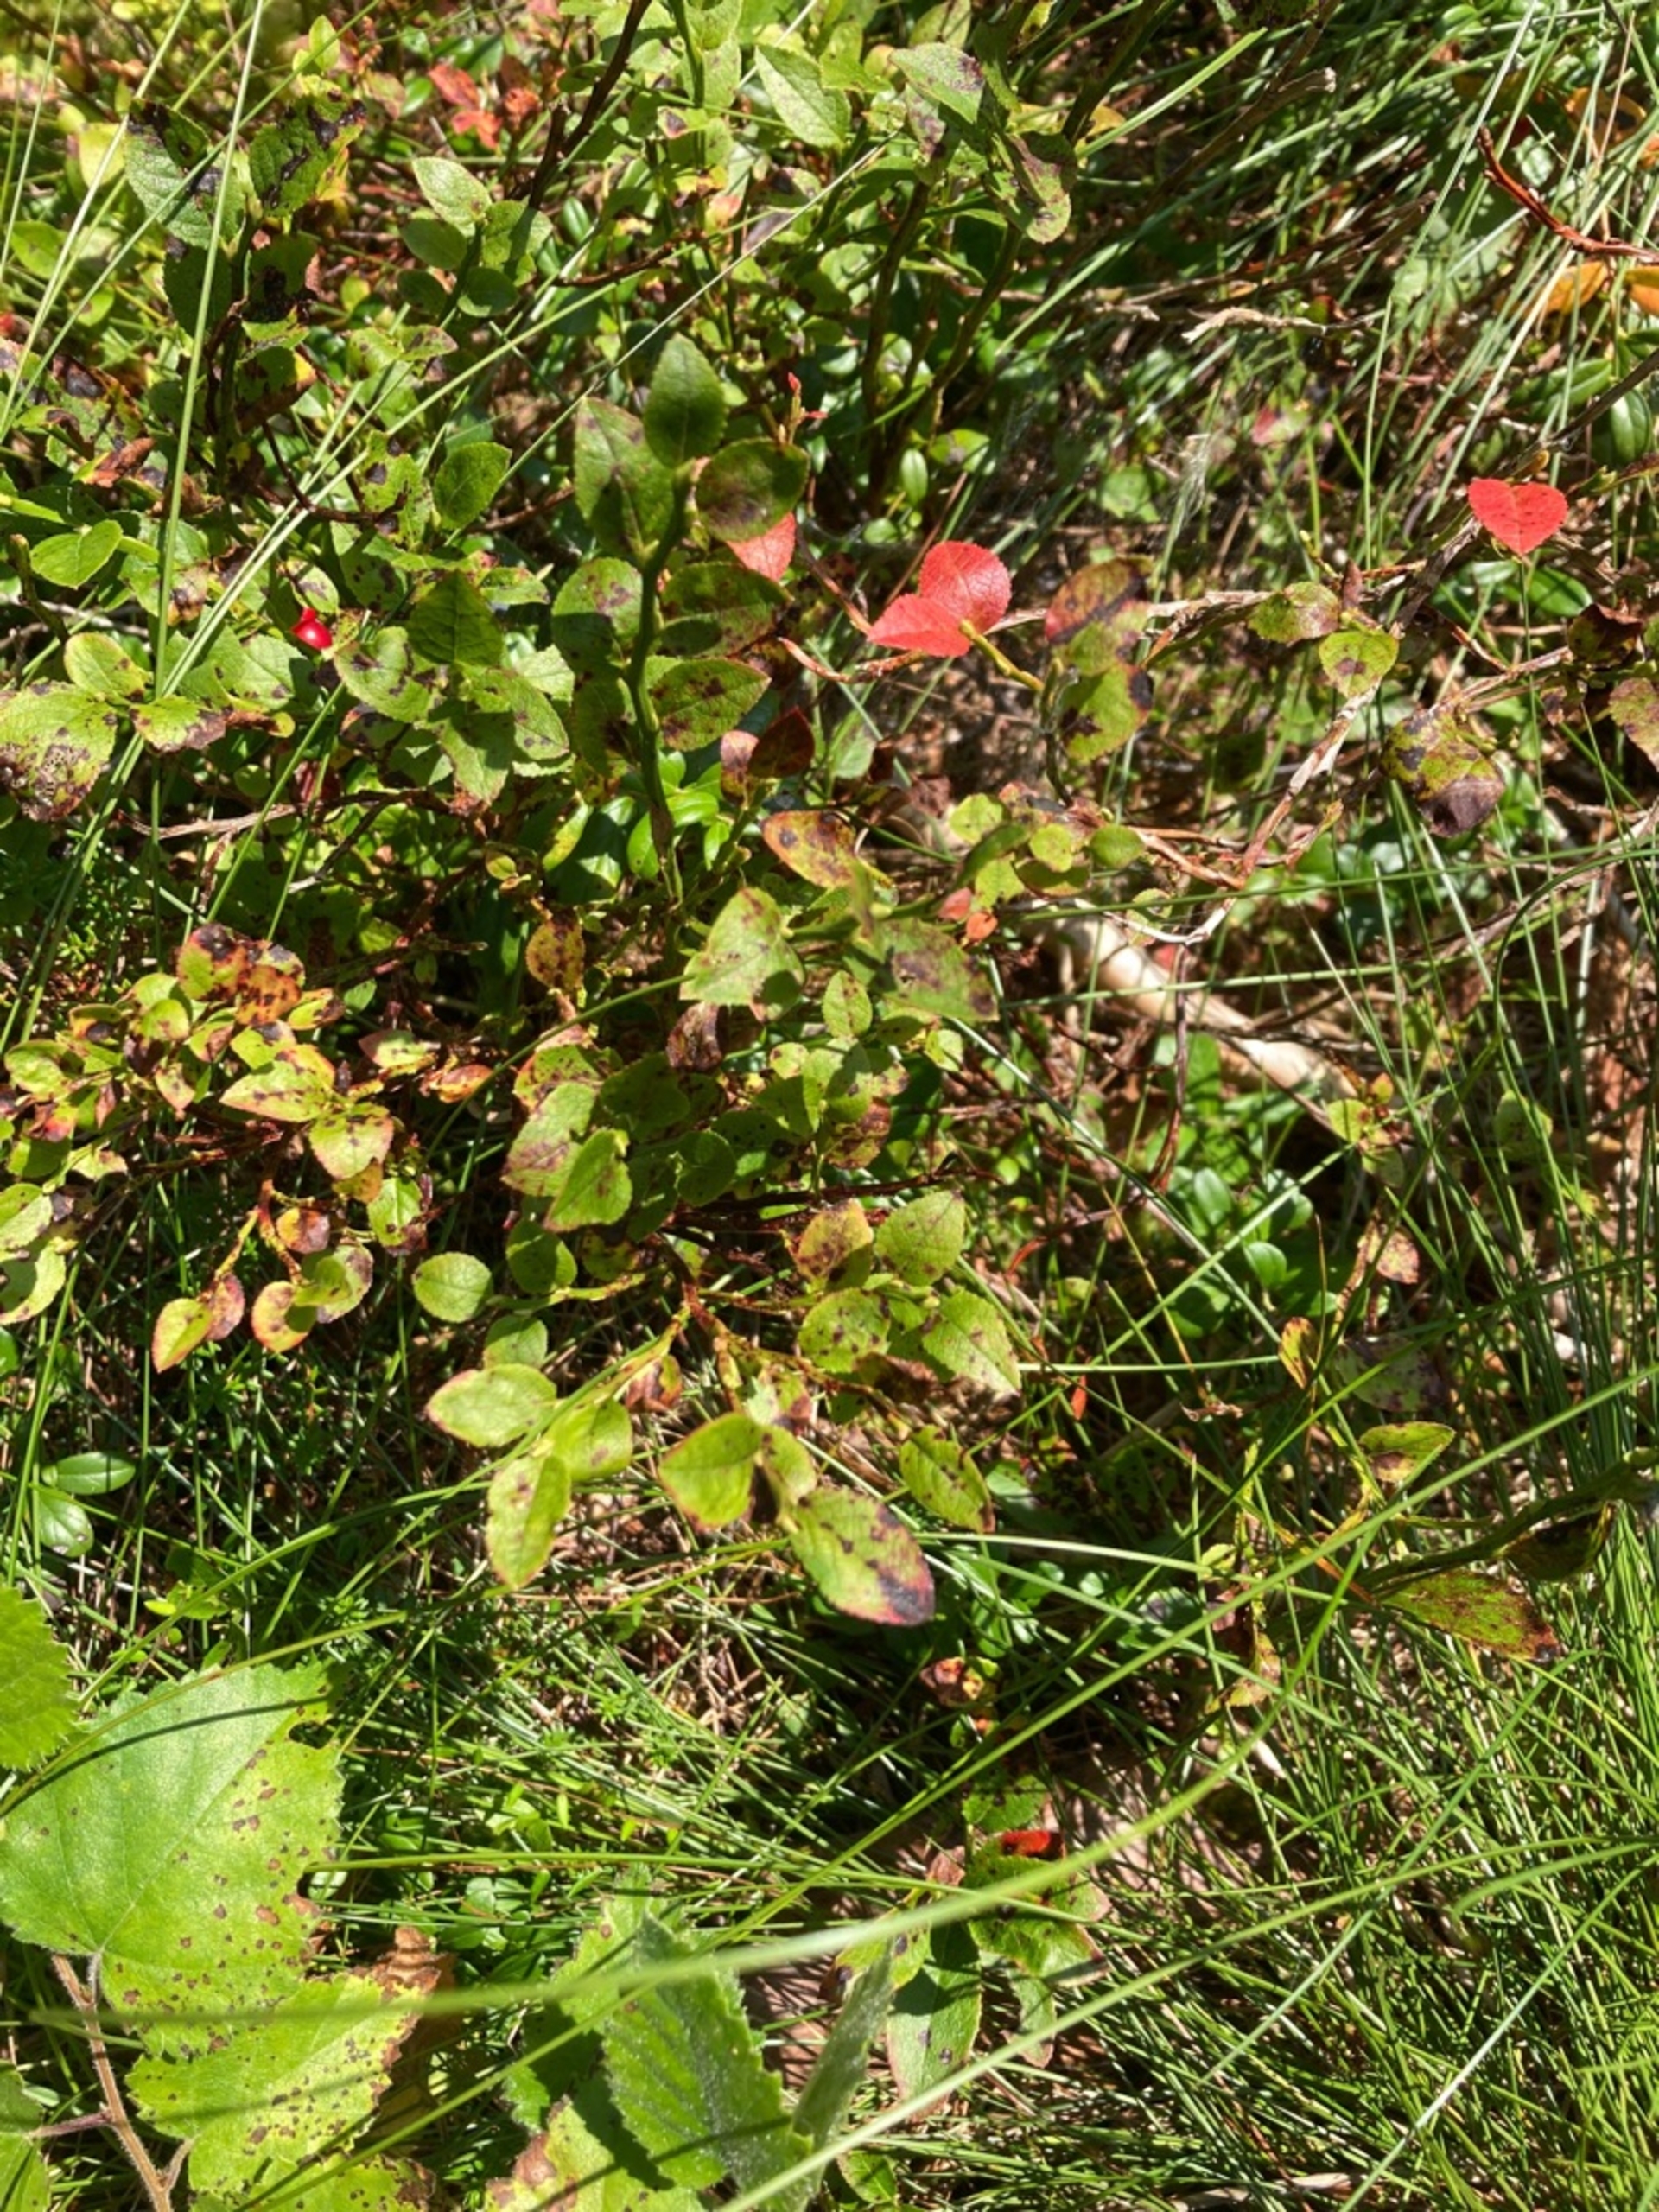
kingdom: Plantae
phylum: Tracheophyta
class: Magnoliopsida
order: Ericales
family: Ericaceae
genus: Vaccinium
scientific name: Vaccinium myrtillus
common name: Blåbær
